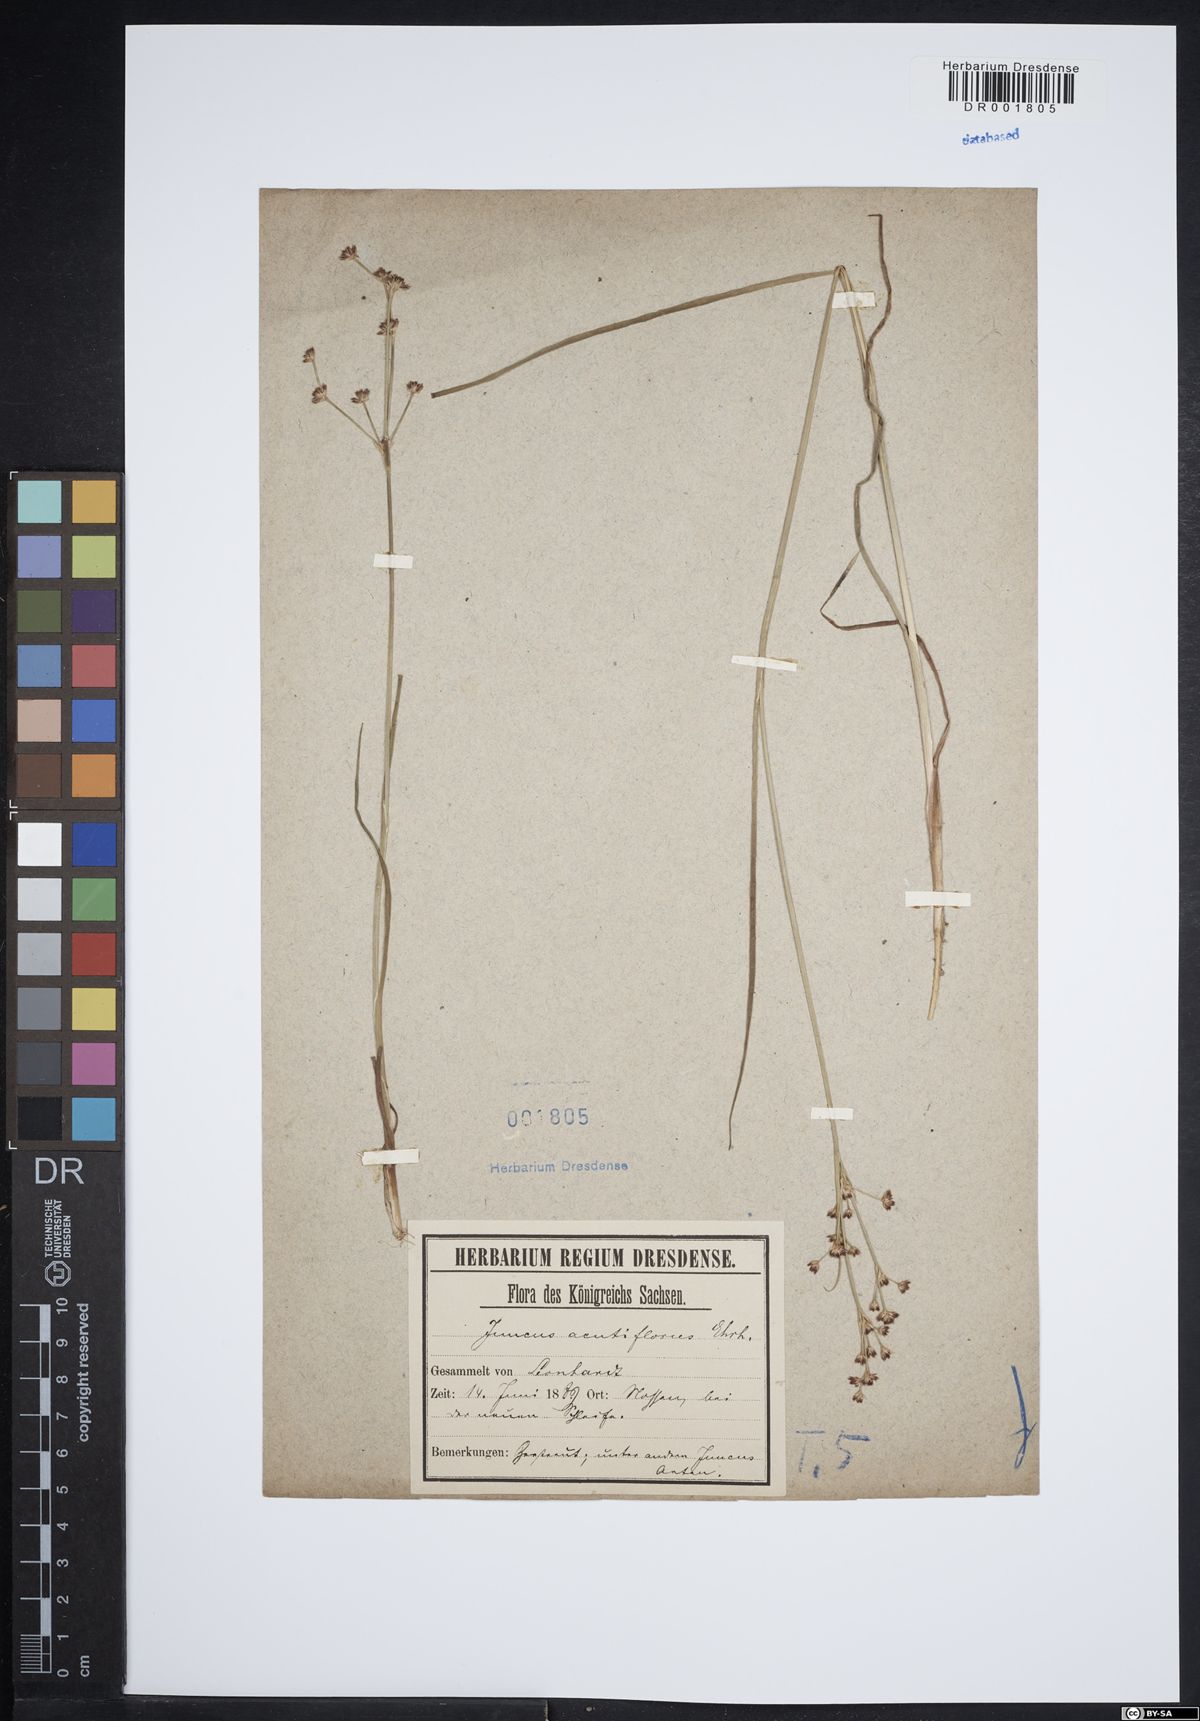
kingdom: Plantae
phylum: Tracheophyta
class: Liliopsida
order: Poales
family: Juncaceae
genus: Juncus
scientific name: Juncus acutiflorus
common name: Sharp-flowered rush
